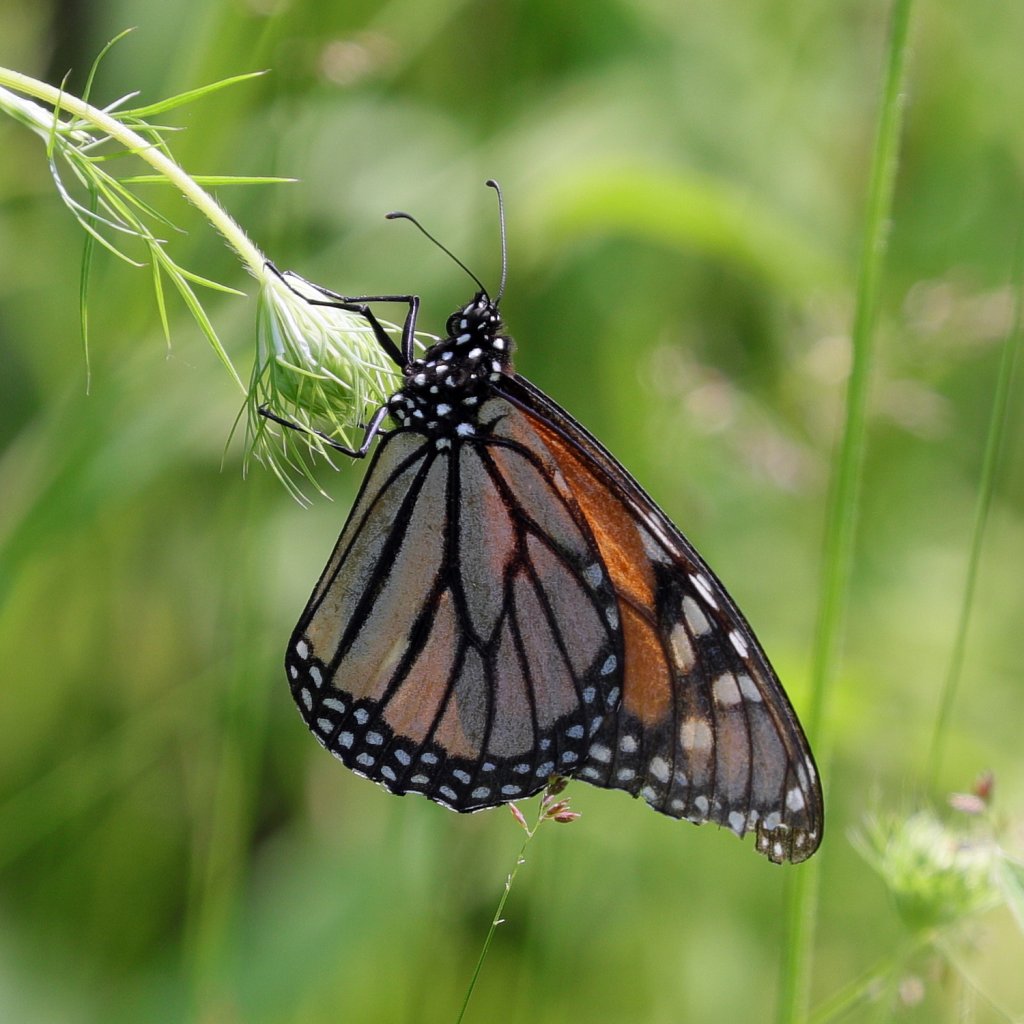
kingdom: Animalia
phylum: Arthropoda
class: Insecta
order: Lepidoptera
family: Nymphalidae
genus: Danaus
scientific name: Danaus plexippus
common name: Monarch
